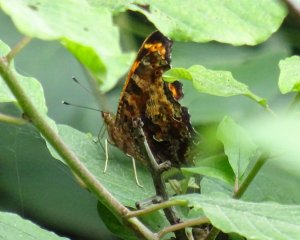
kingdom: Animalia
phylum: Arthropoda
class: Insecta
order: Lepidoptera
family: Nymphalidae
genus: Polygonia
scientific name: Polygonia comma
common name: Eastern Comma
